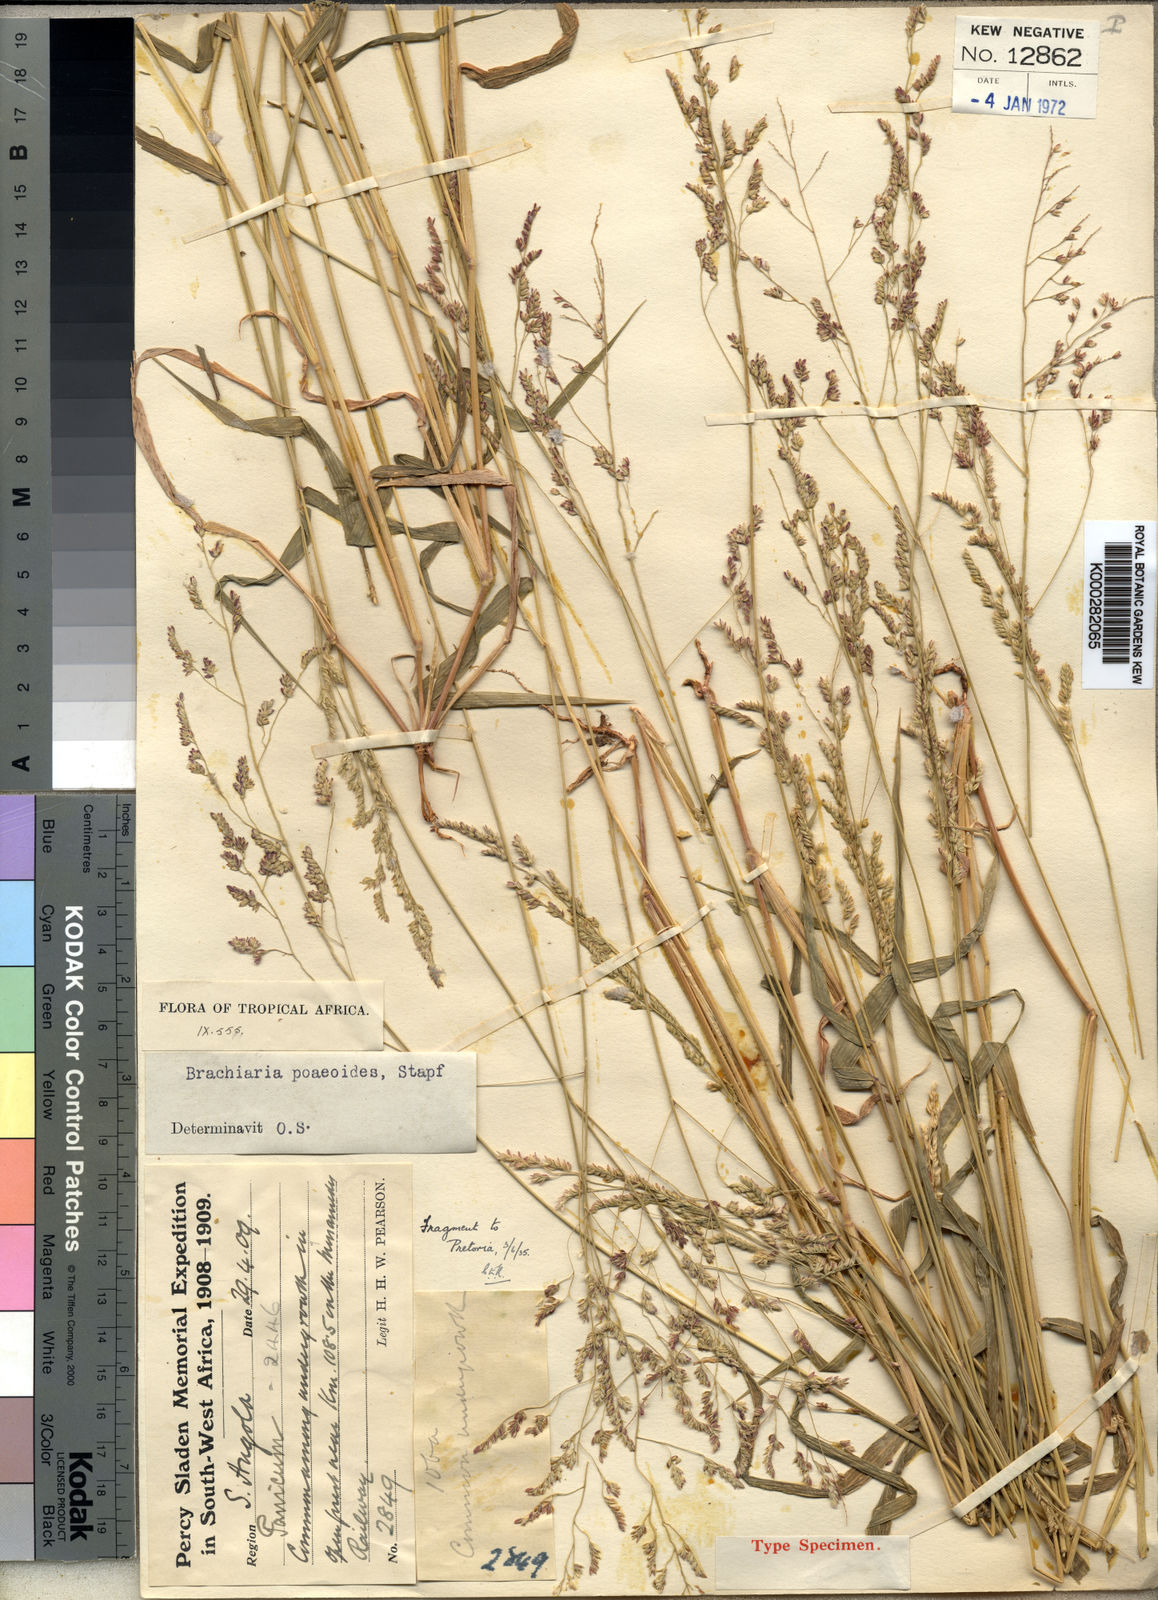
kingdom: Plantae
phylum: Tracheophyta
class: Liliopsida
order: Poales
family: Poaceae
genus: Moorochloa
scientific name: Moorochloa malacodes
